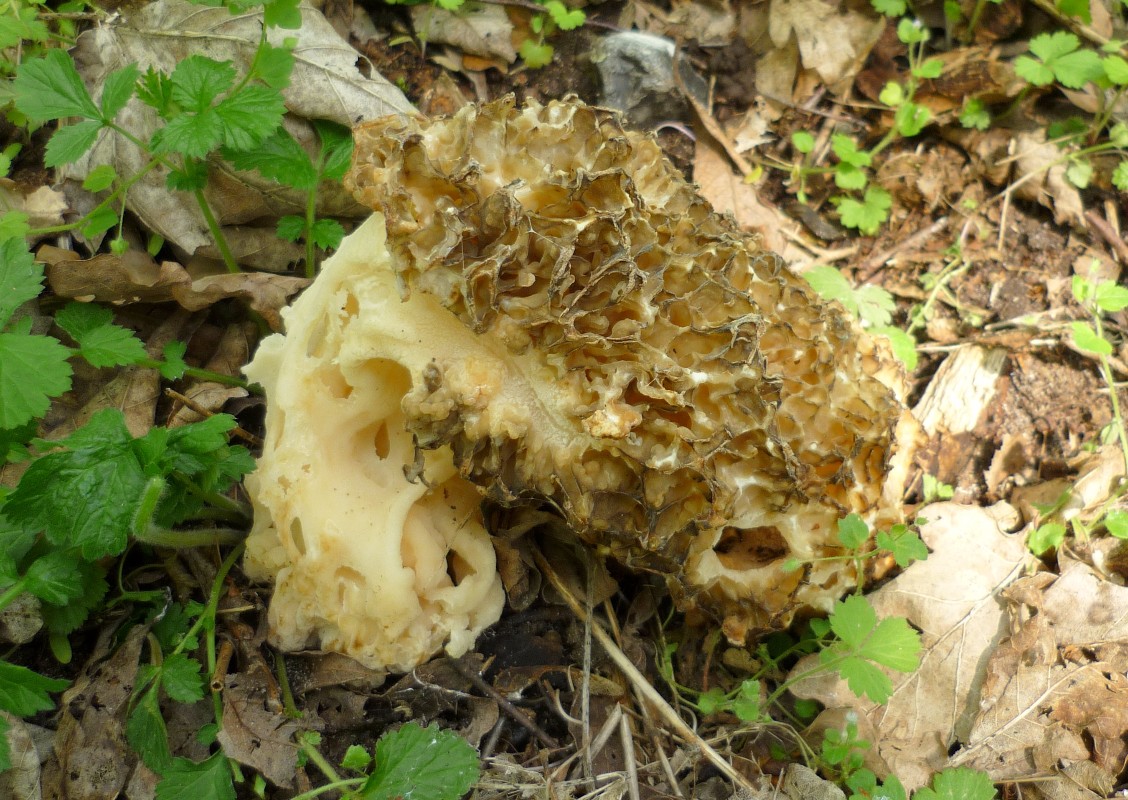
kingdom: Fungi
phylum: Ascomycota
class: Pezizomycetes
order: Pezizales
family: Morchellaceae
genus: Morchella
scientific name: Morchella esculenta
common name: spiselig morkel
